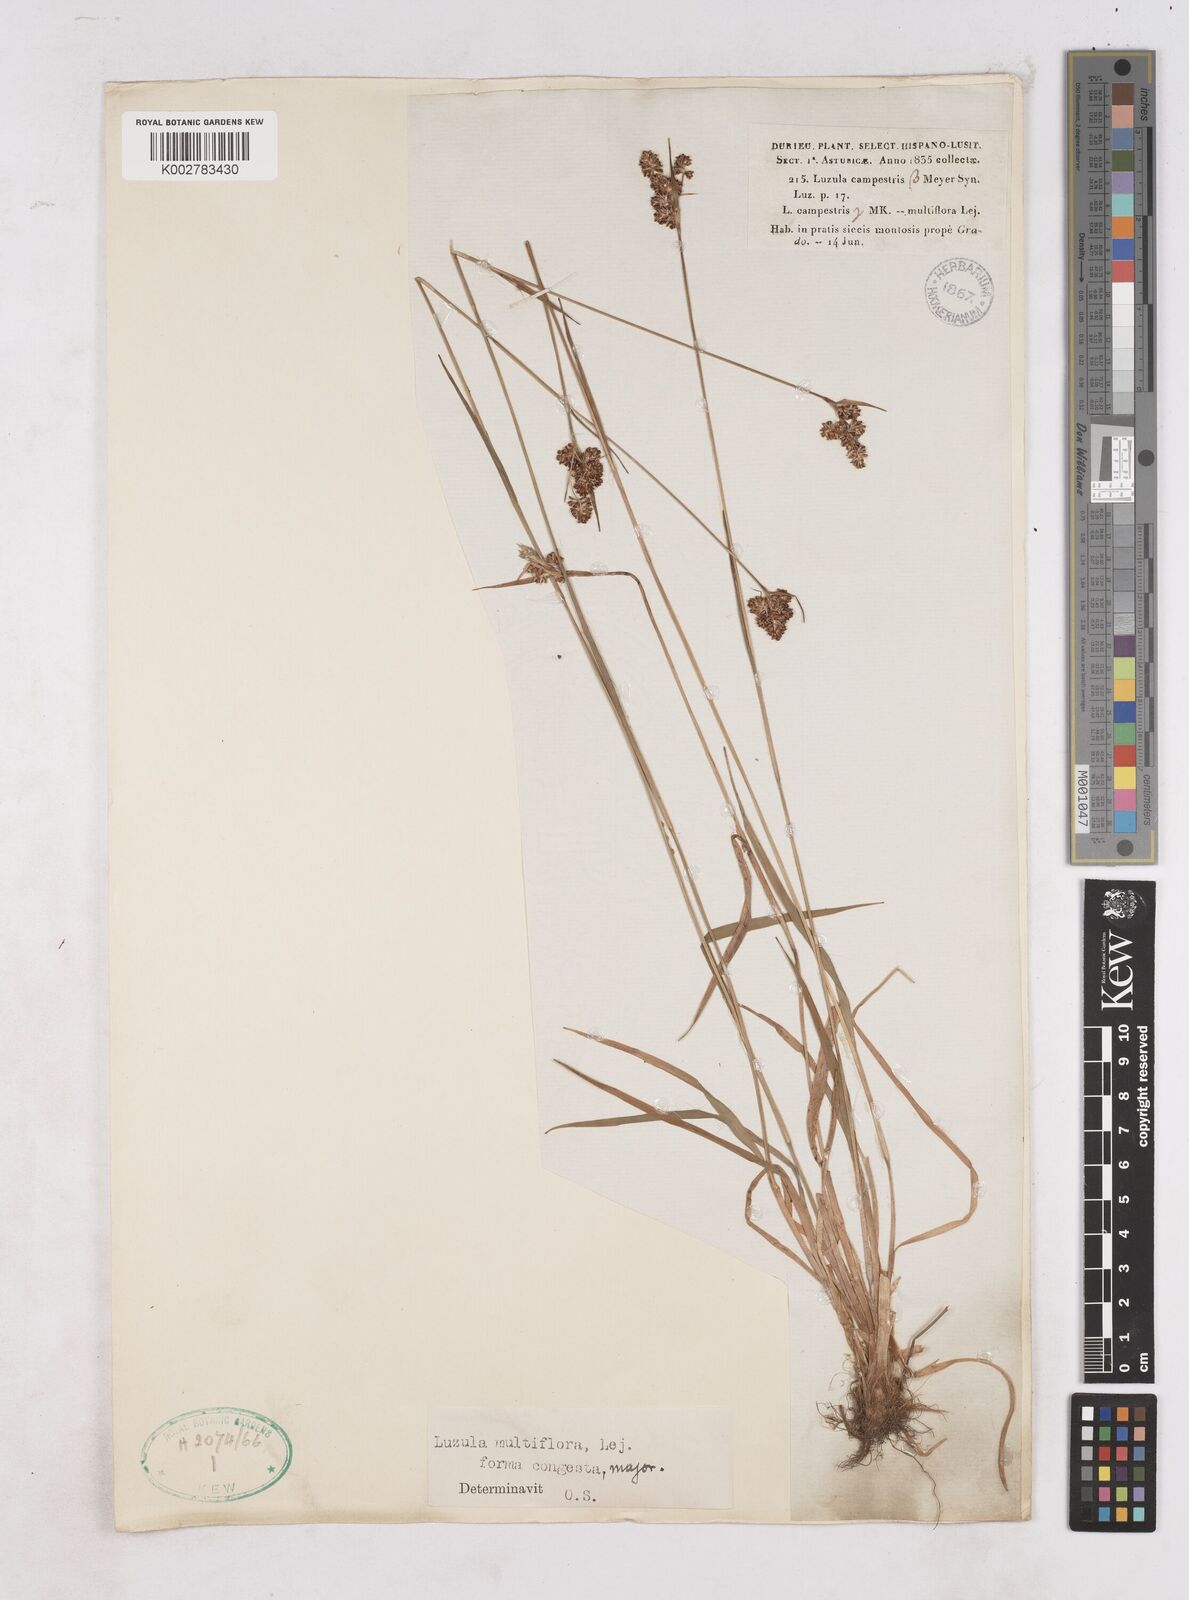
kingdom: Plantae
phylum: Tracheophyta
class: Liliopsida
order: Poales
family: Juncaceae
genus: Luzula
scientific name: Luzula multiflora
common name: Heath wood-rush
